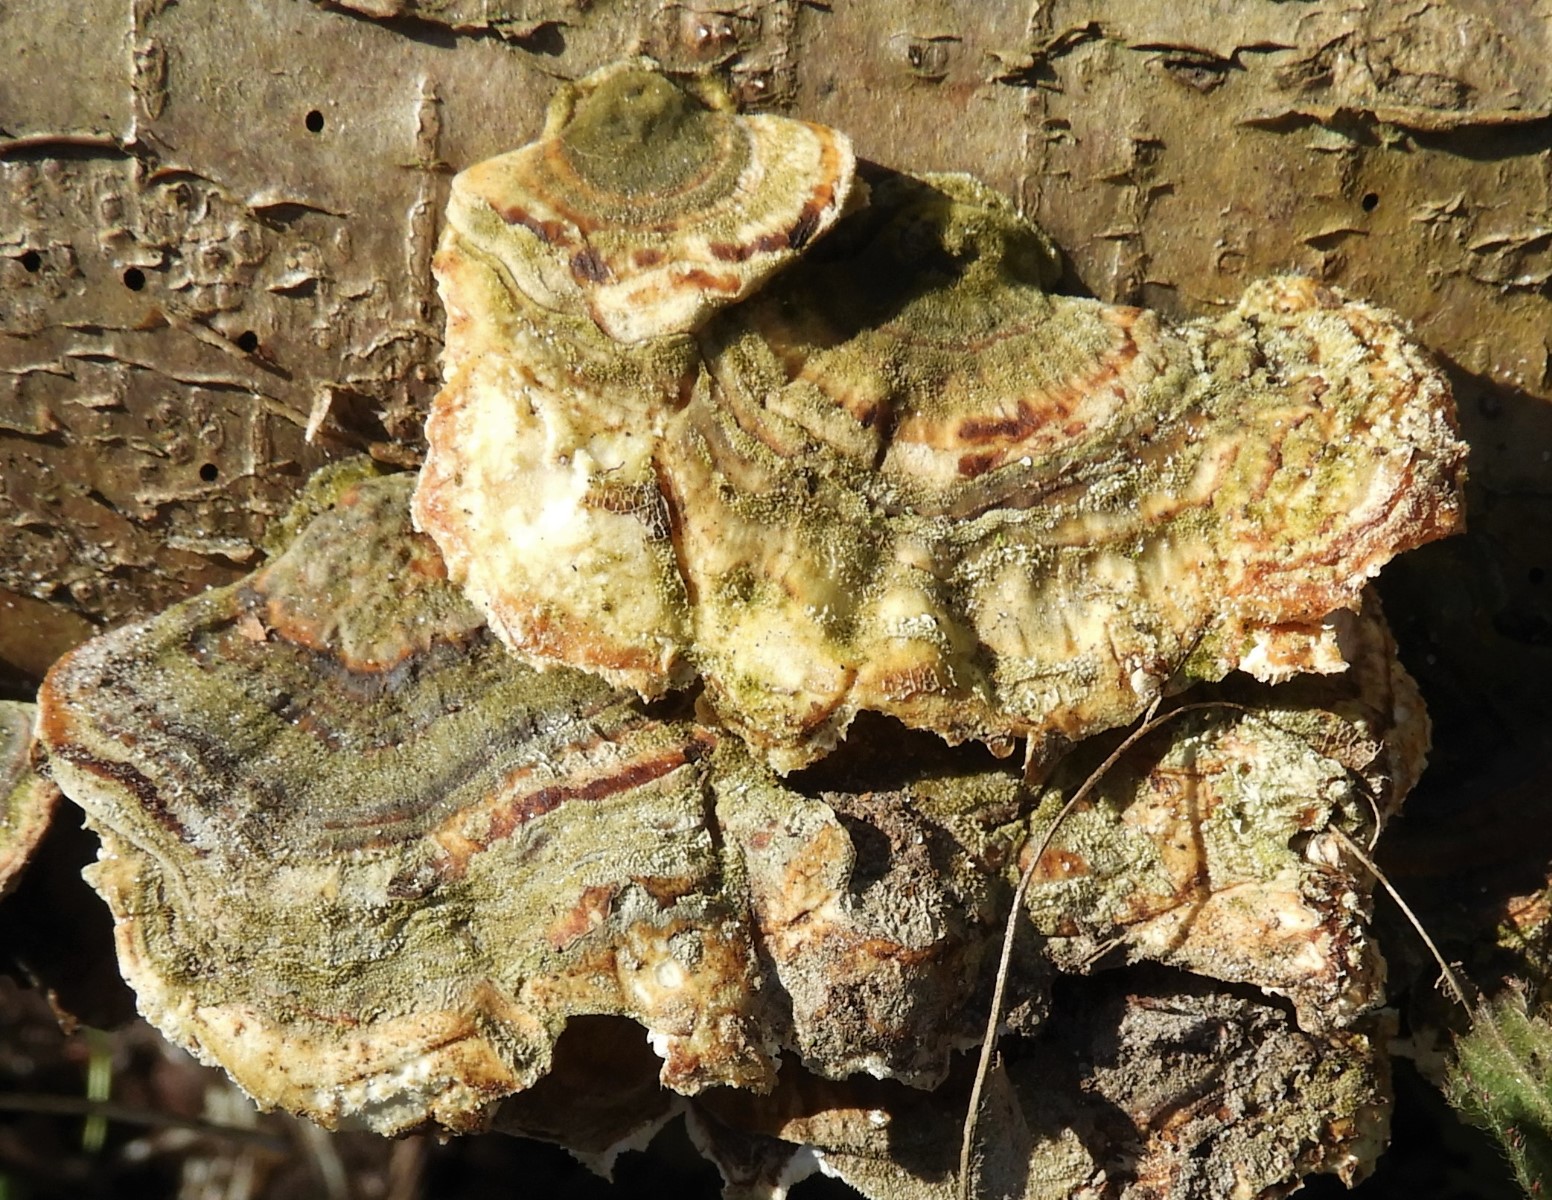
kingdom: Fungi
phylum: Basidiomycota
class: Agaricomycetes
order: Polyporales
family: Polyporaceae
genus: Trametes
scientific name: Trametes hirsuta
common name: håret læderporesvamp
